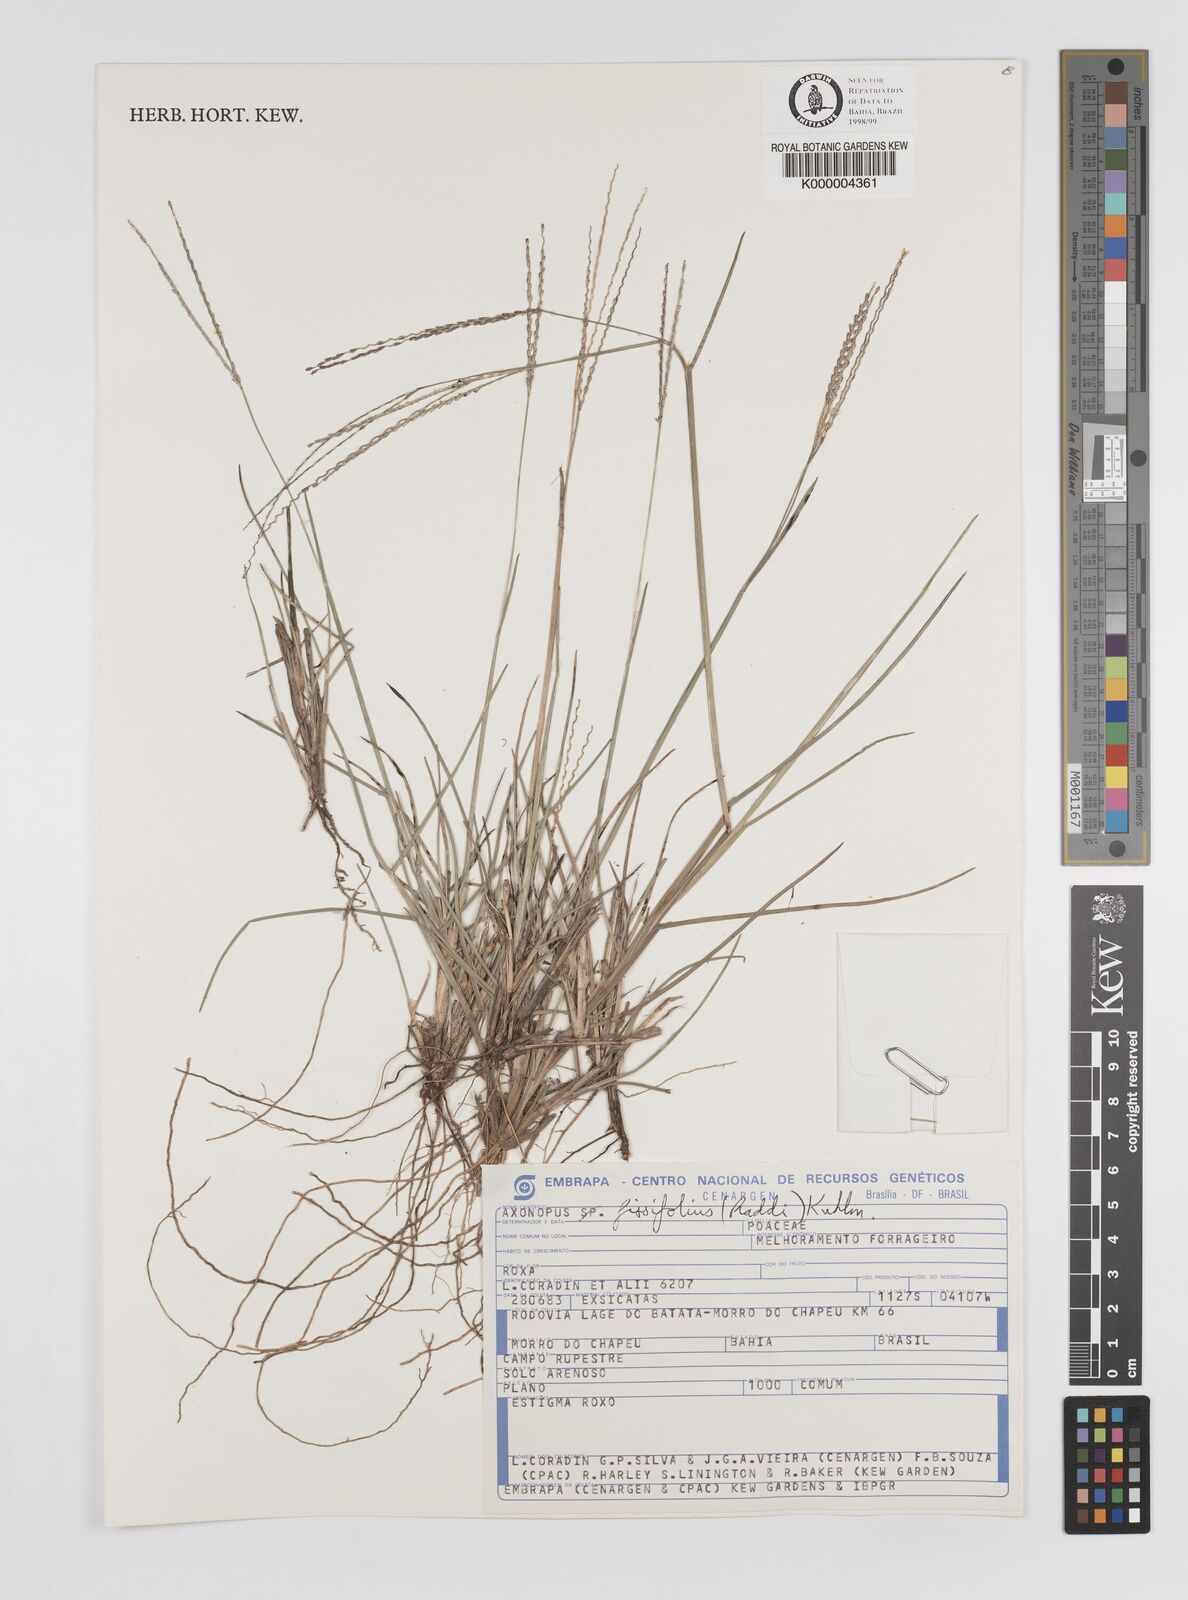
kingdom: Plantae
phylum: Tracheophyta
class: Liliopsida
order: Poales
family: Poaceae
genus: Axonopus
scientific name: Axonopus fissifolius
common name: Common carpetgrass
